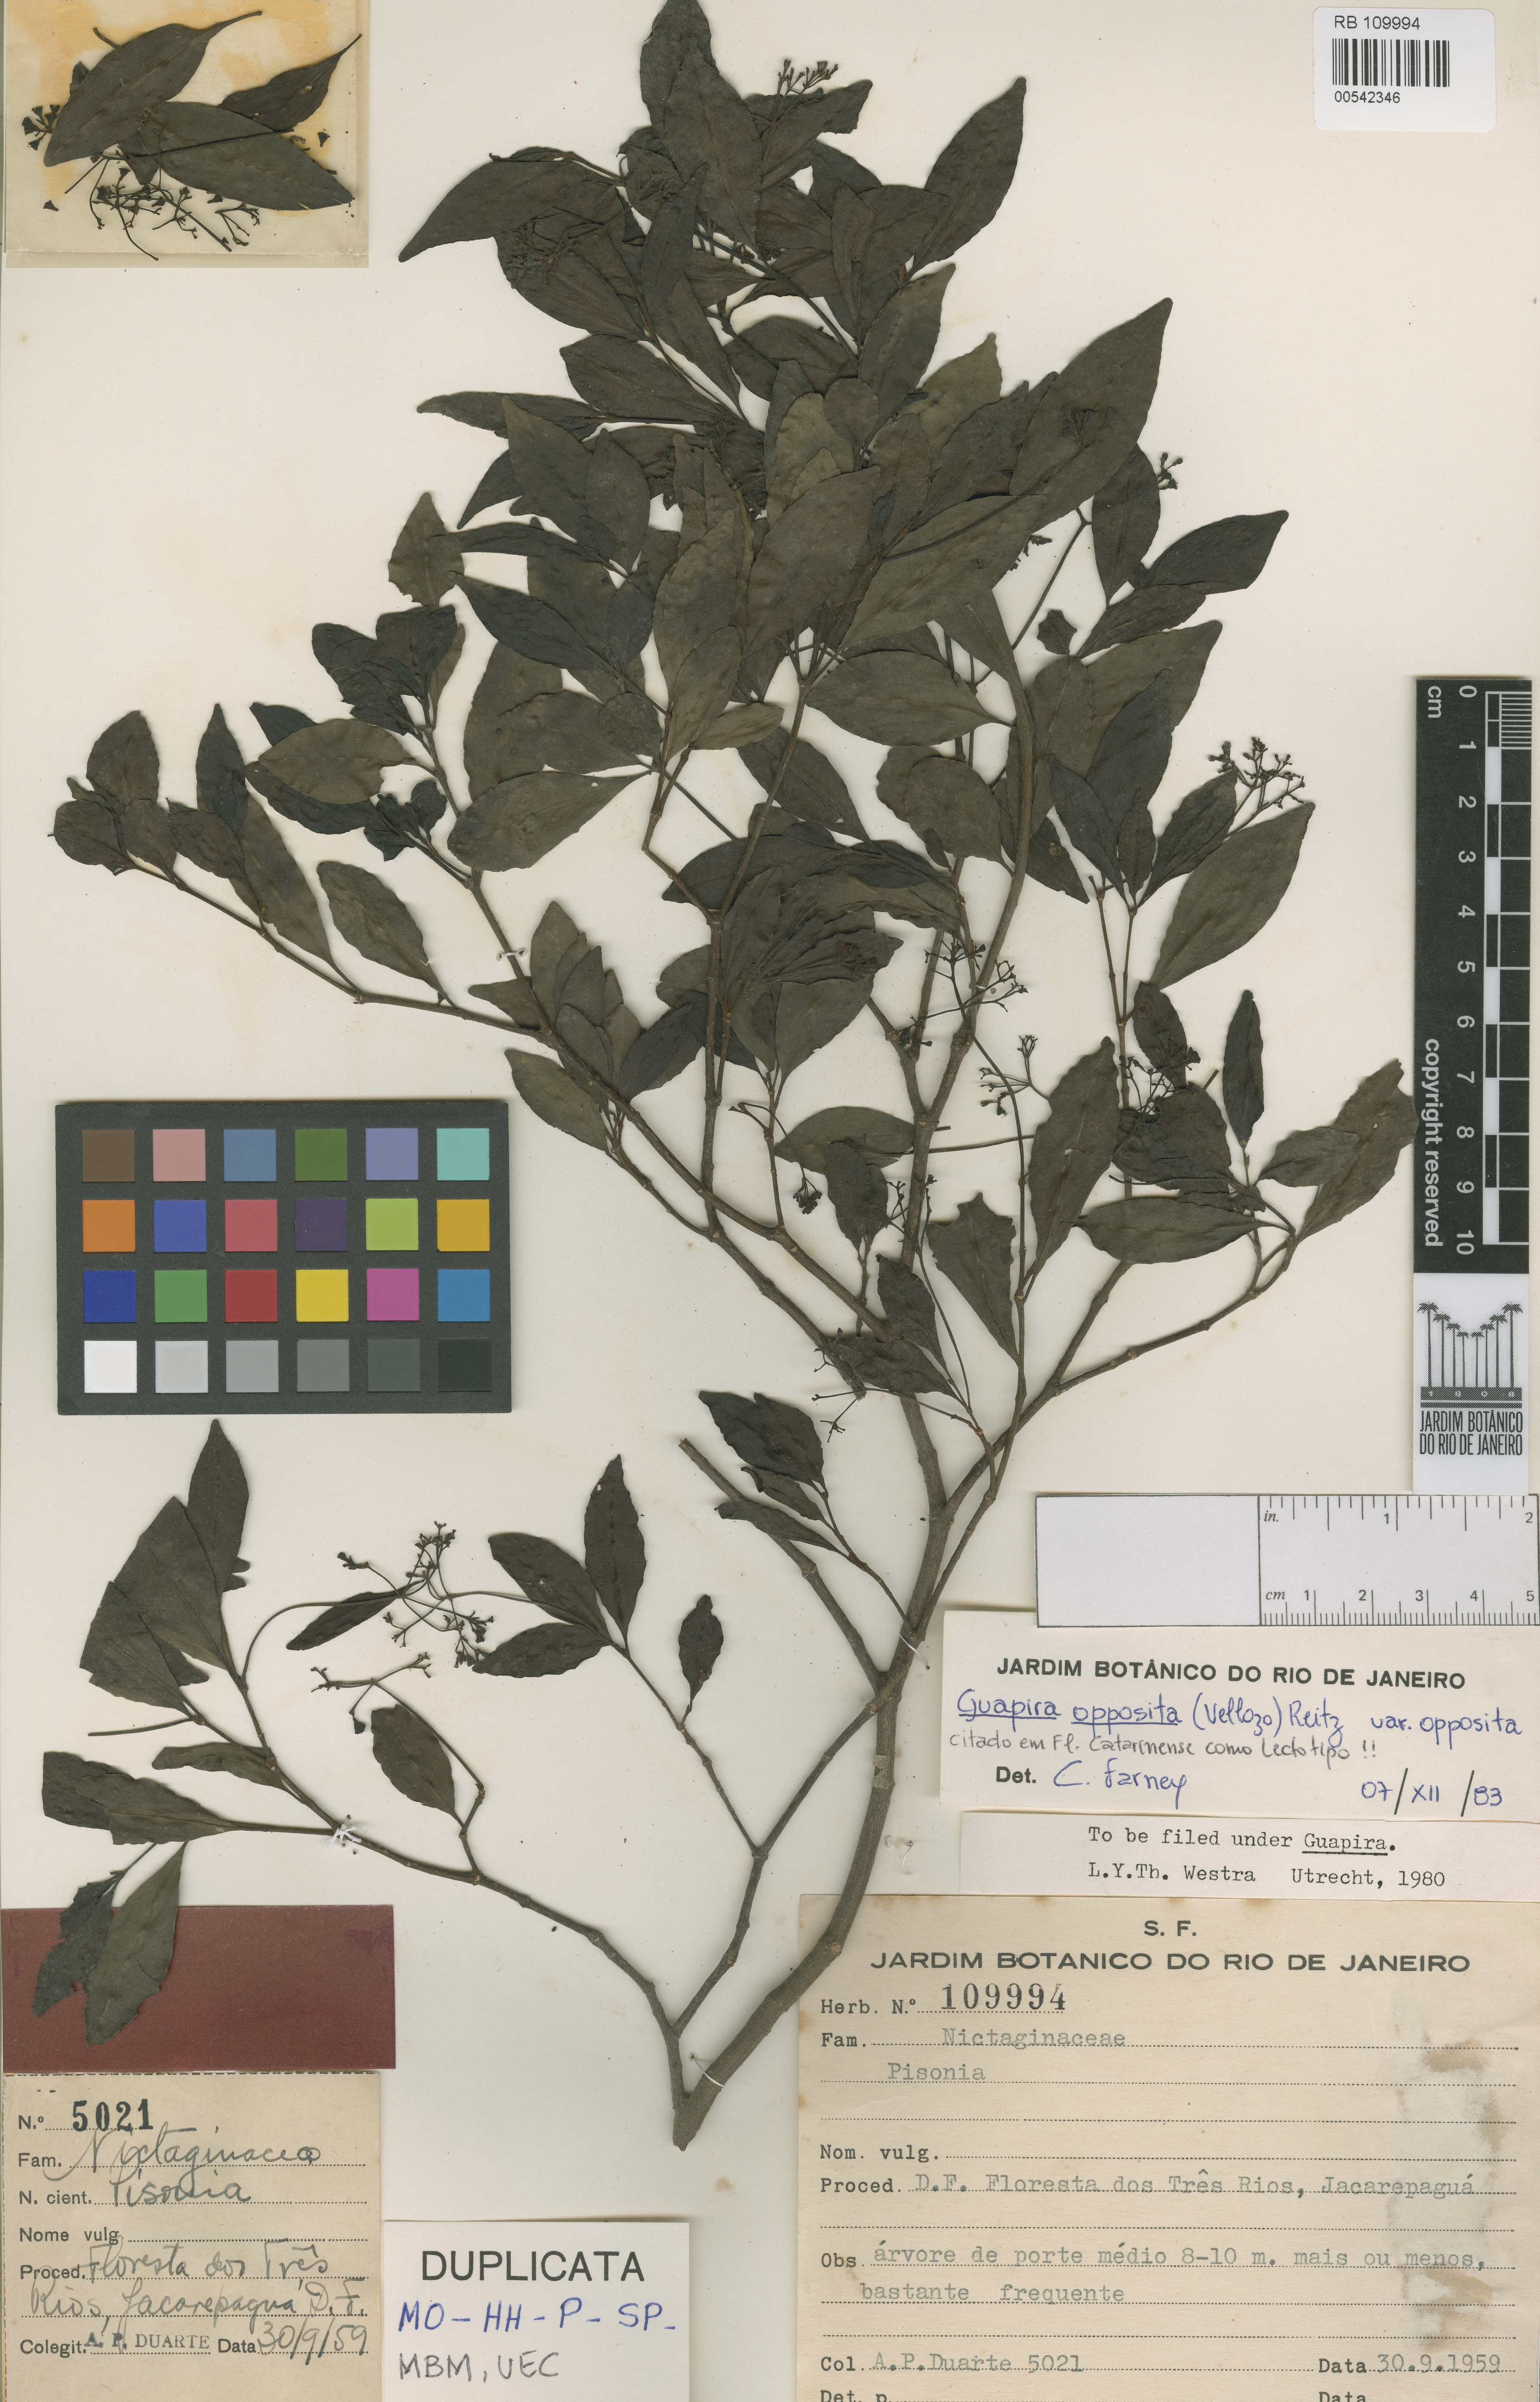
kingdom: Plantae
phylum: Tracheophyta
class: Magnoliopsida
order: Caryophyllales
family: Nyctaginaceae
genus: Guapira
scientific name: Guapira opposita
